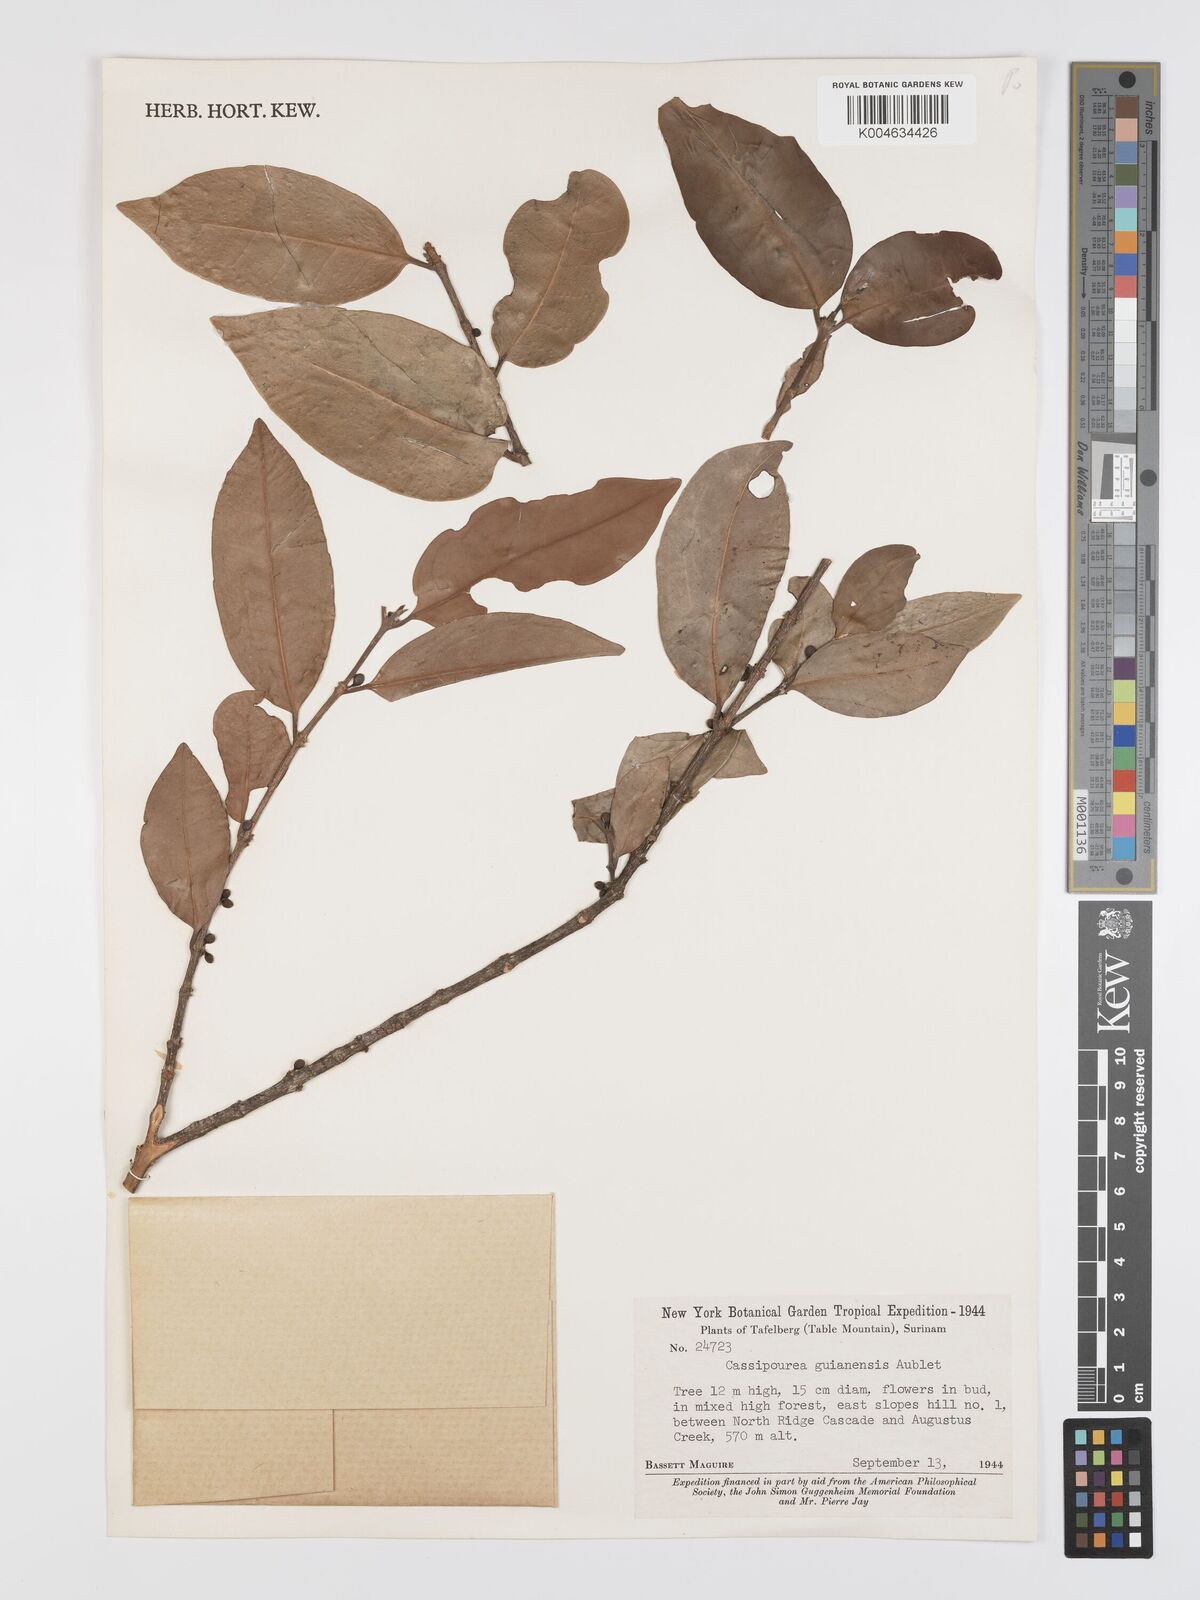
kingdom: Plantae
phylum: Tracheophyta
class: Magnoliopsida
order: Malpighiales
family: Rhizophoraceae
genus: Cassipourea
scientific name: Cassipourea guianensis
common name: Bastard waterwood
